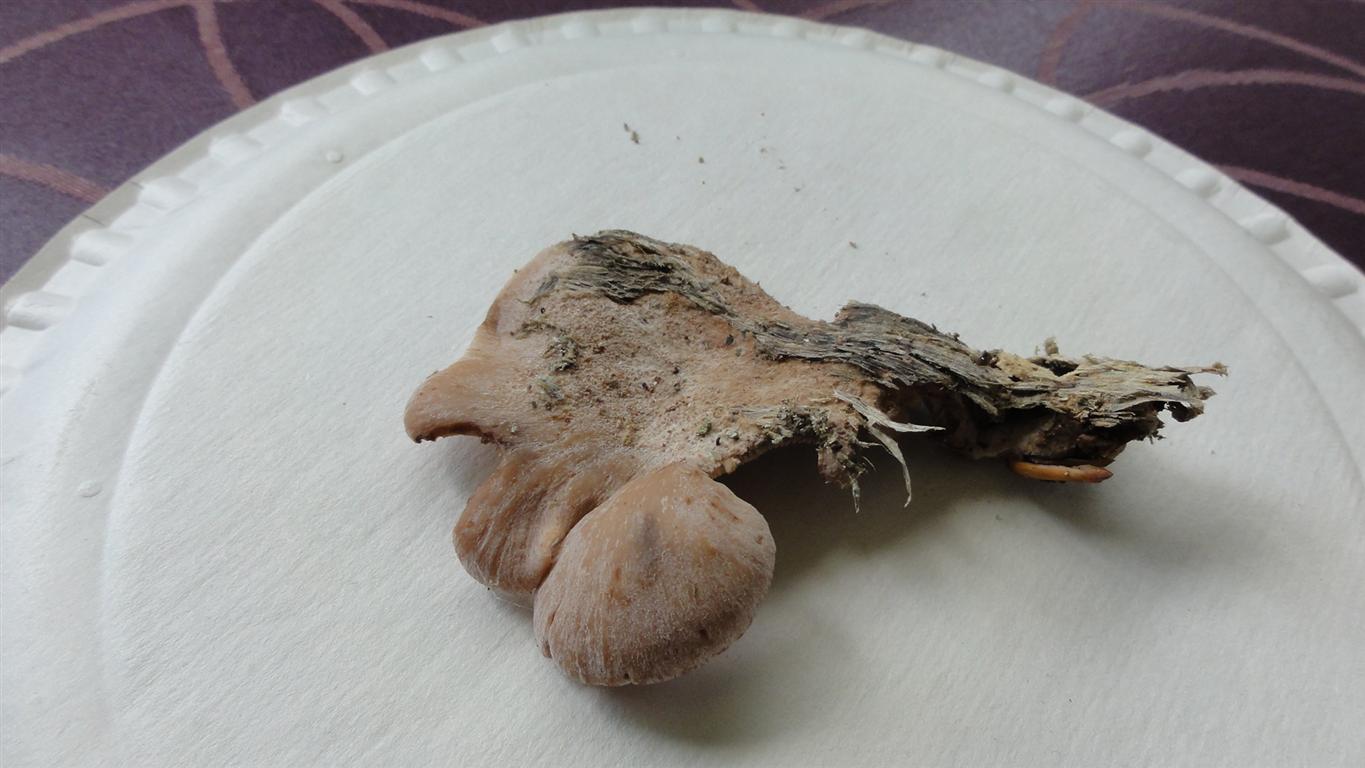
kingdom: Fungi
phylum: Basidiomycota
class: Agaricomycetes
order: Russulales
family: Auriscalpiaceae
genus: Lentinellus
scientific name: Lentinellus ursinus
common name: børstehåret savbladhat
